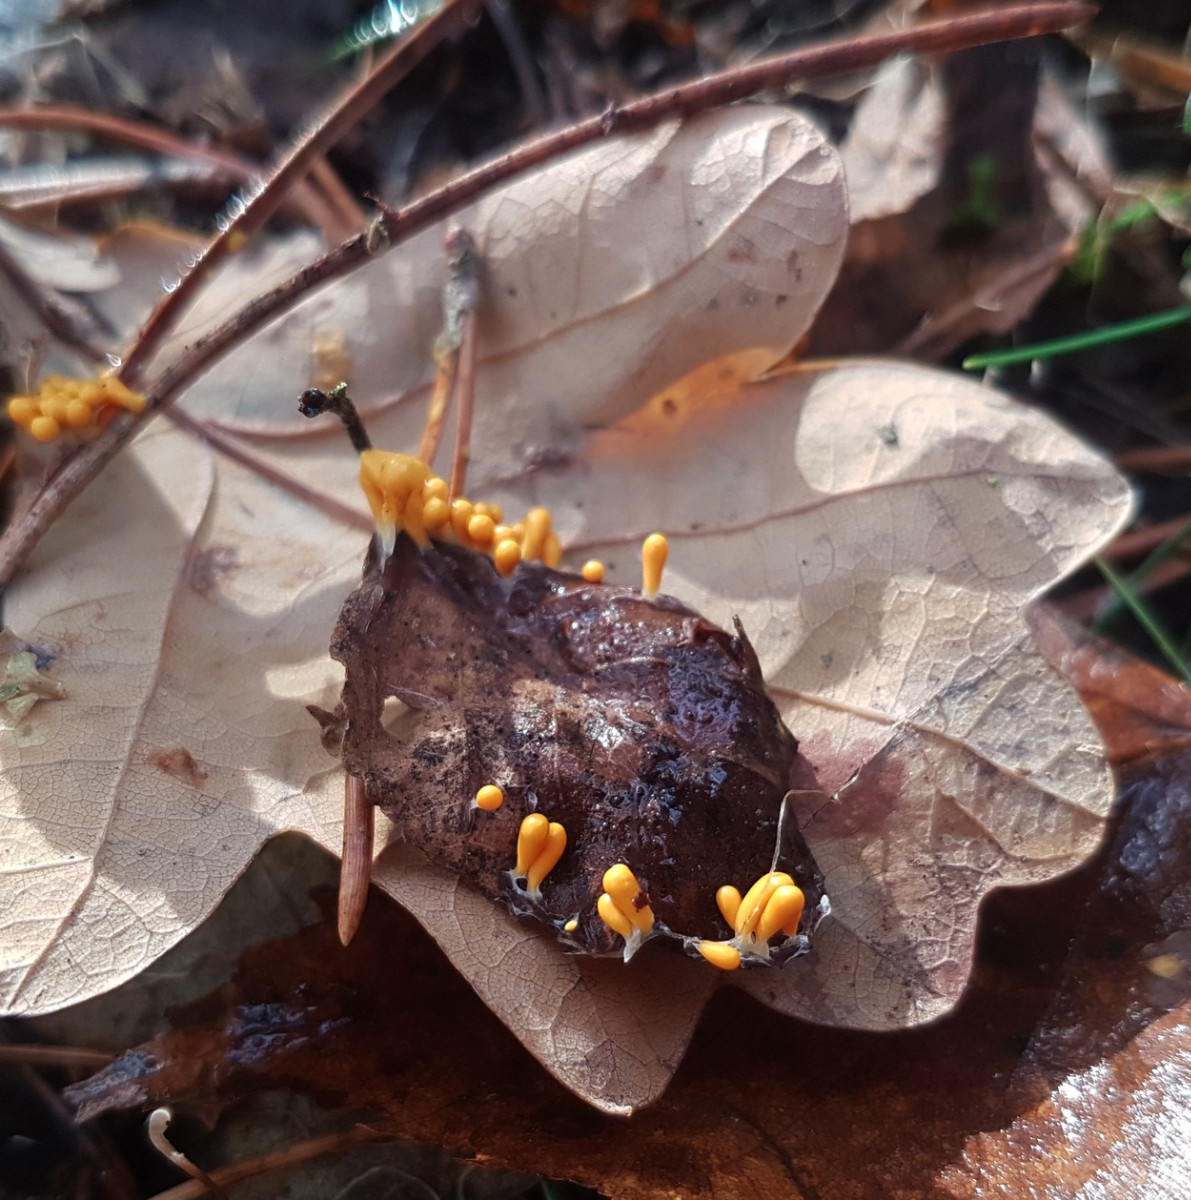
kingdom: Protozoa
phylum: Mycetozoa
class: Myxomycetes
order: Physarales
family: Physaraceae
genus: Leocarpus
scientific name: Leocarpus fragilis
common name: poleret glatfrø
